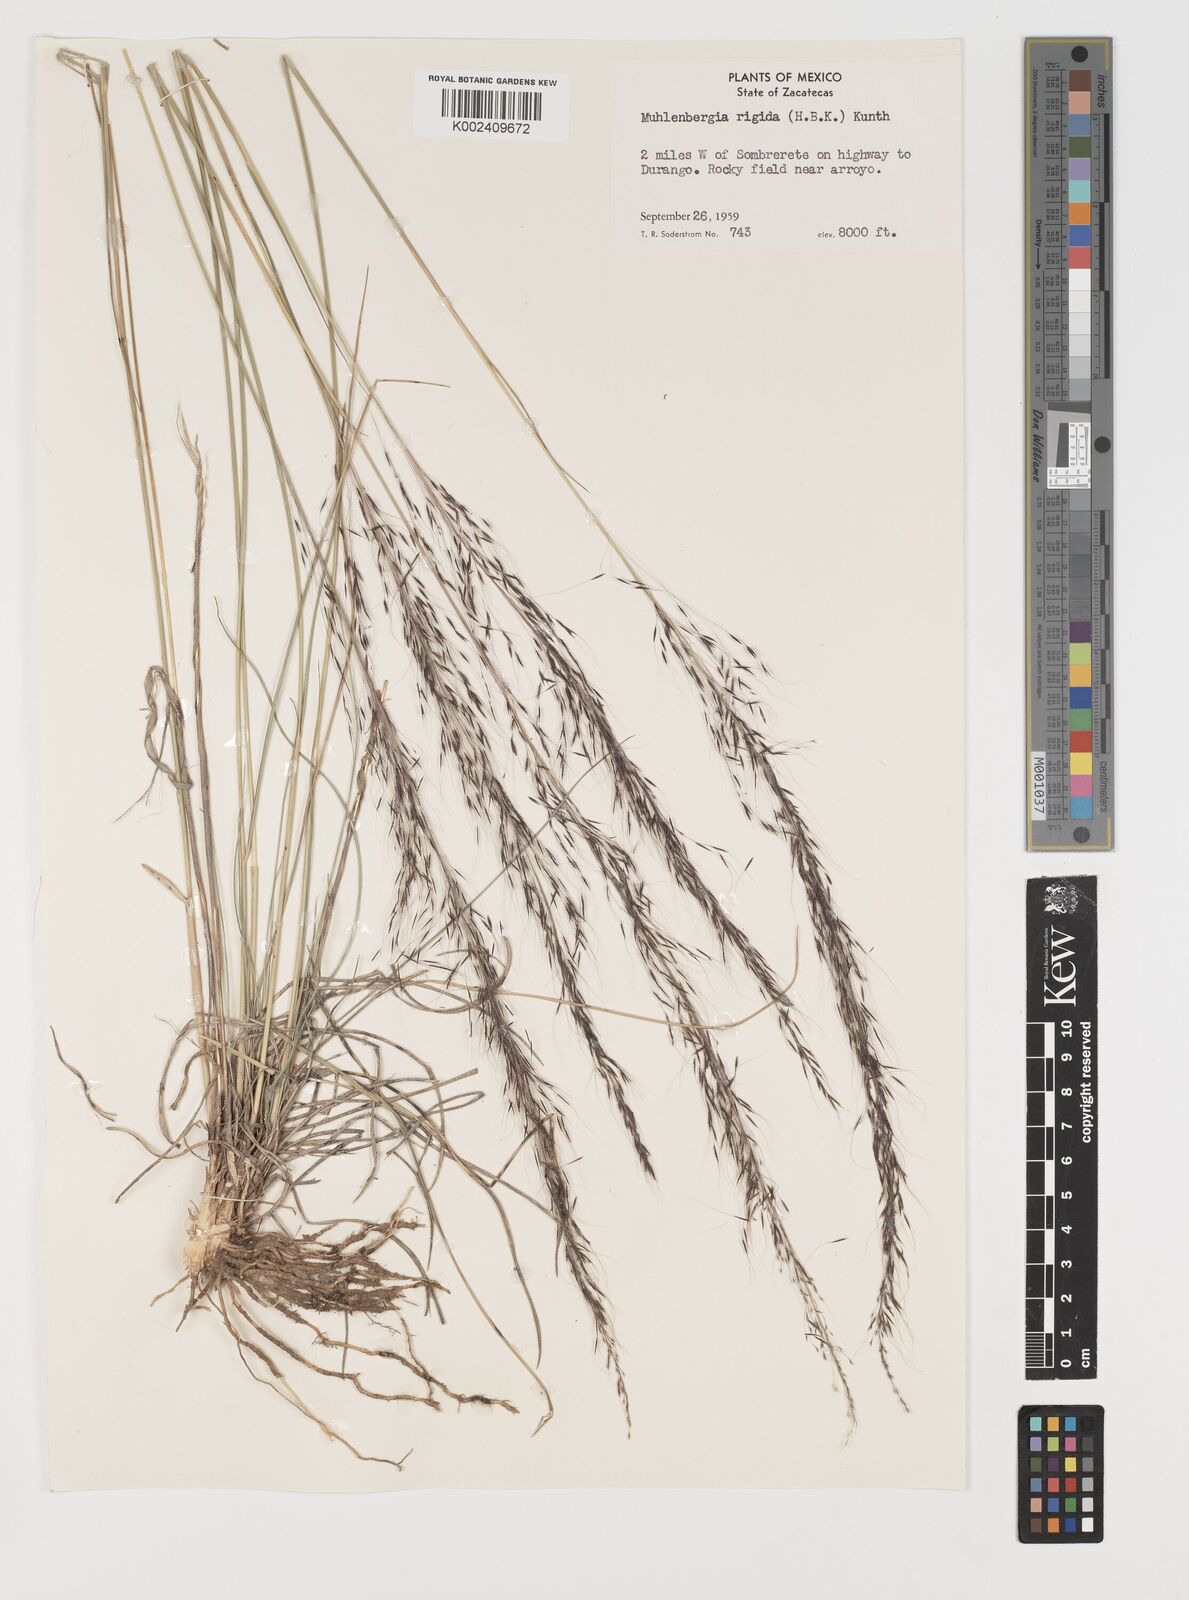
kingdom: Plantae
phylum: Tracheophyta
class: Liliopsida
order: Poales
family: Poaceae
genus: Muhlenbergia
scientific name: Muhlenbergia rigida
